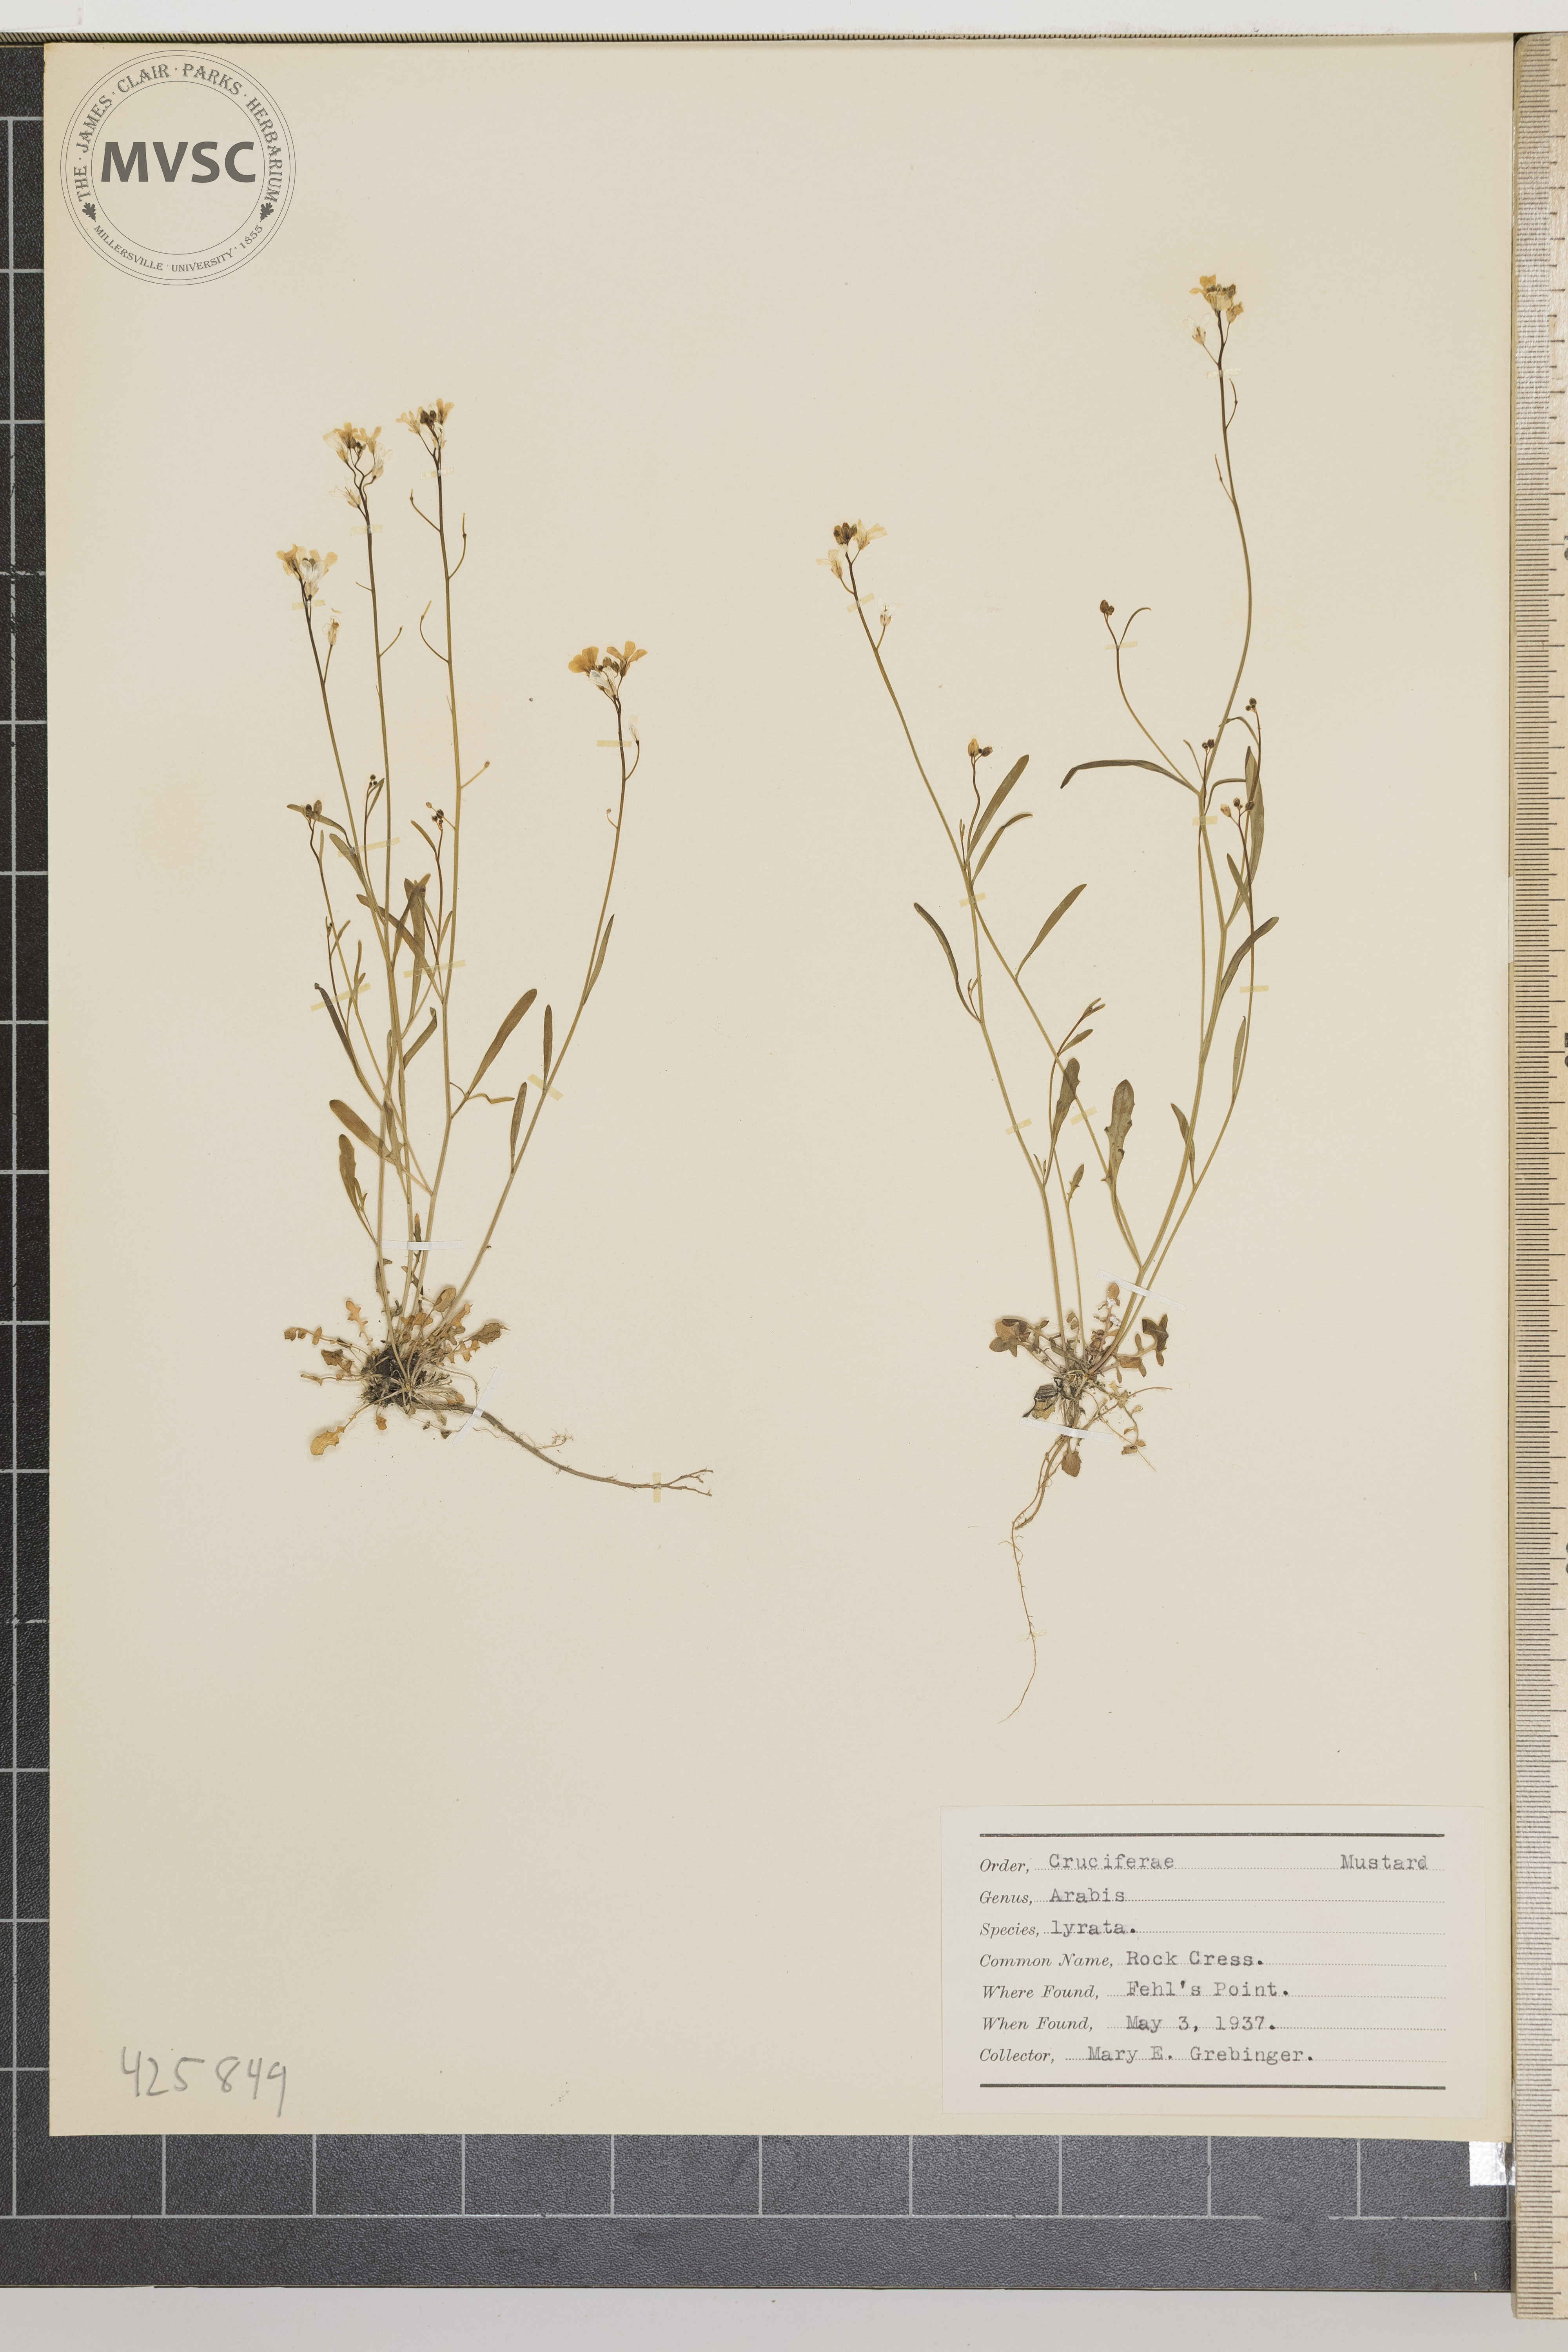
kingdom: Plantae
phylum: Tracheophyta
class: Magnoliopsida
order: Brassicales
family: Brassicaceae
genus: Arabidopsis
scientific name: Arabidopsis lyrata
